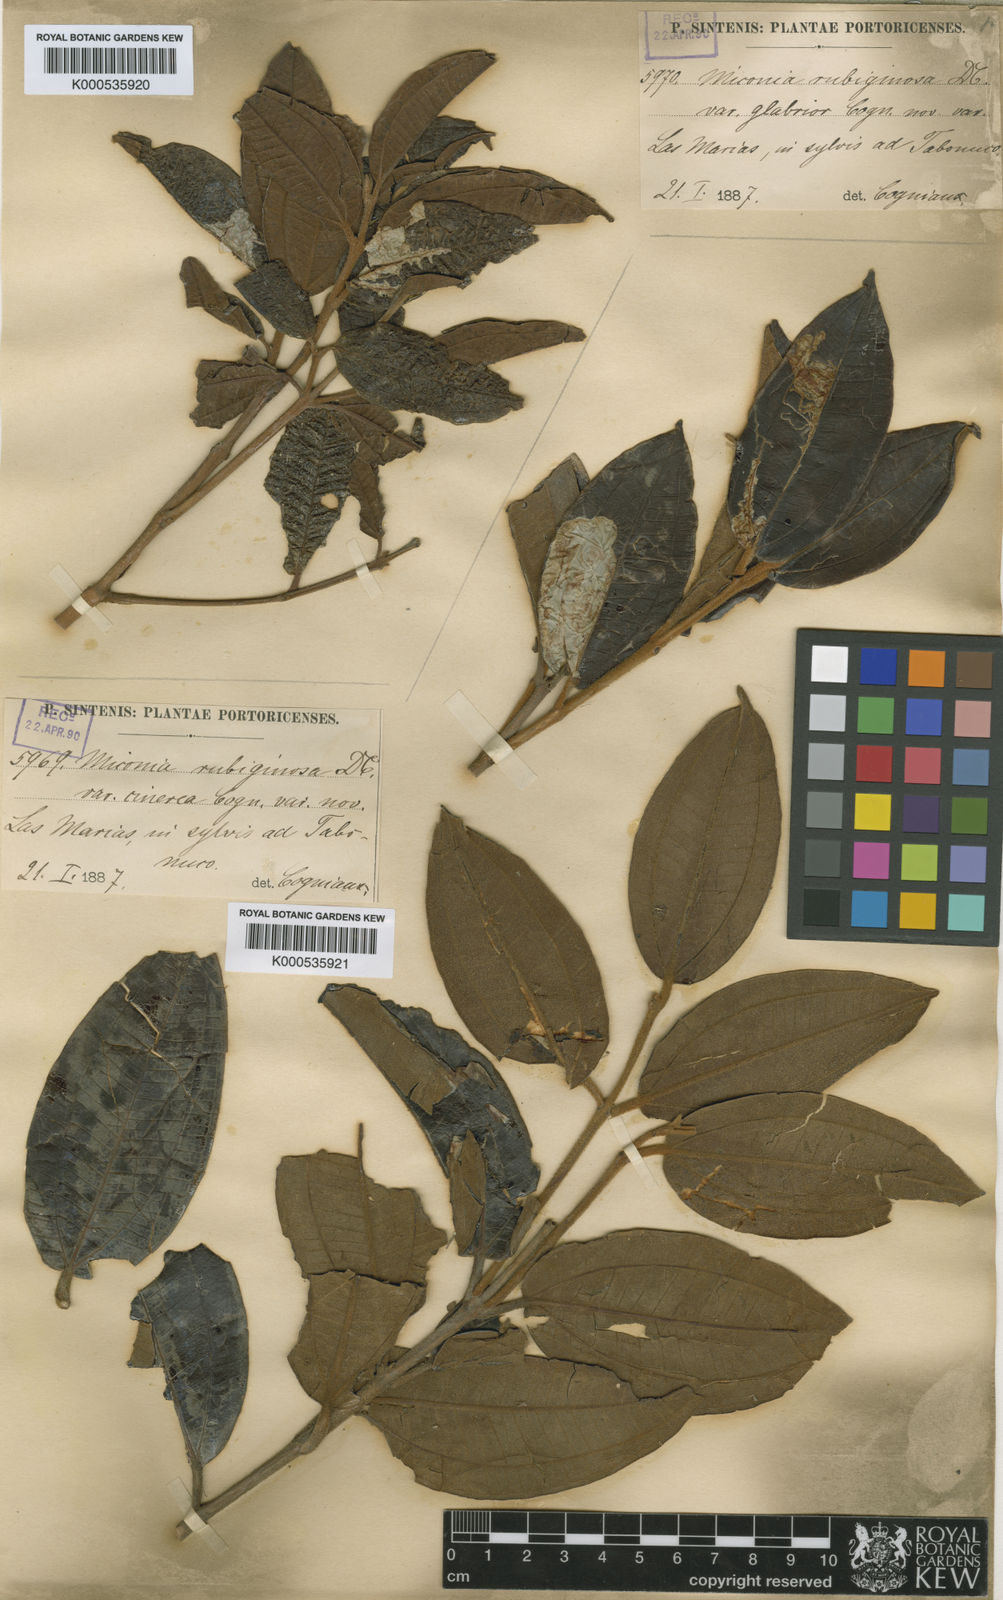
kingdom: Plantae
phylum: Tracheophyta
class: Magnoliopsida
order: Myrtales
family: Melastomataceae
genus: Miconia
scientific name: Miconia rubiginosa
